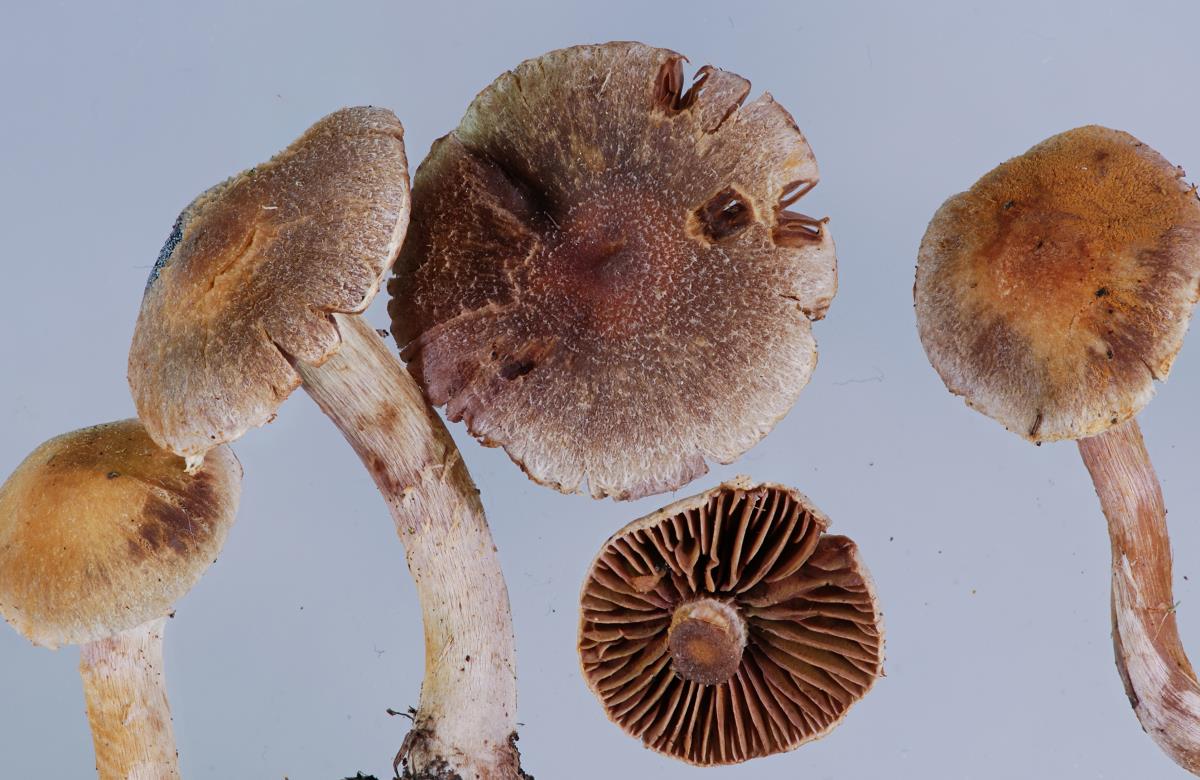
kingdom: Fungi
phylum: Basidiomycota
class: Agaricomycetes
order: Agaricales
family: Cortinariaceae
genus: Cortinarius
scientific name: Cortinarius geraniolens
